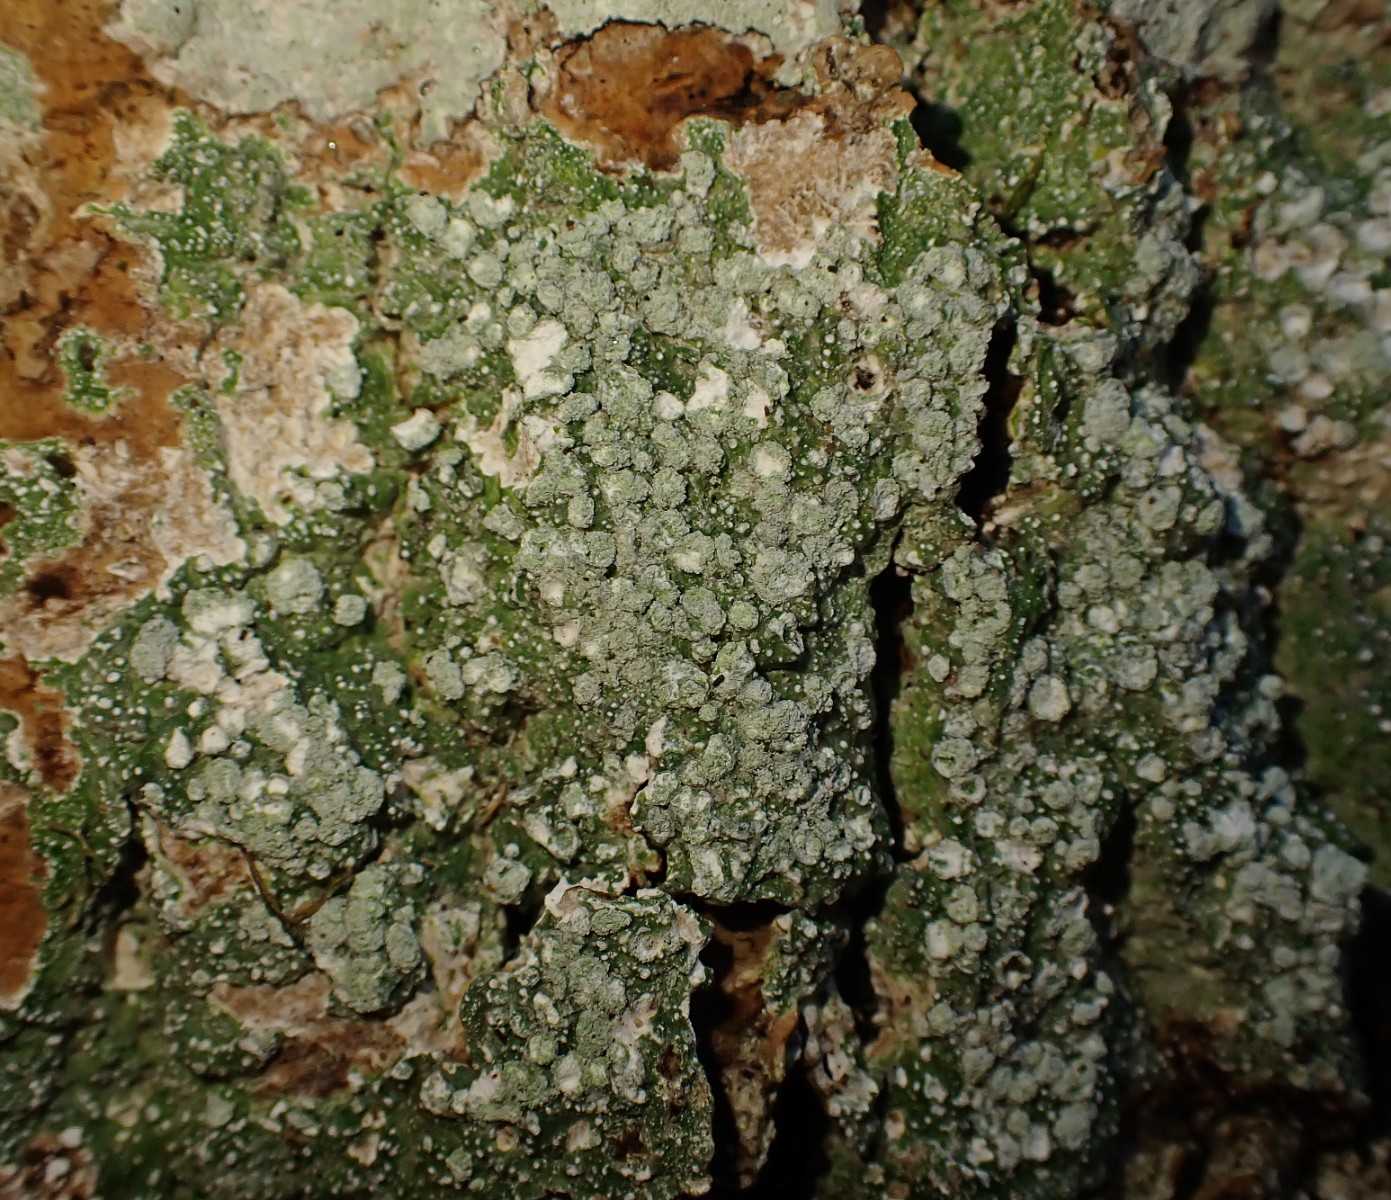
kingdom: Fungi
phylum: Ascomycota
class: Lecanoromycetes
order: Pertusariales
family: Pertusariaceae
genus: Lepra
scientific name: Lepra amara
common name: bitter prikvortelav
